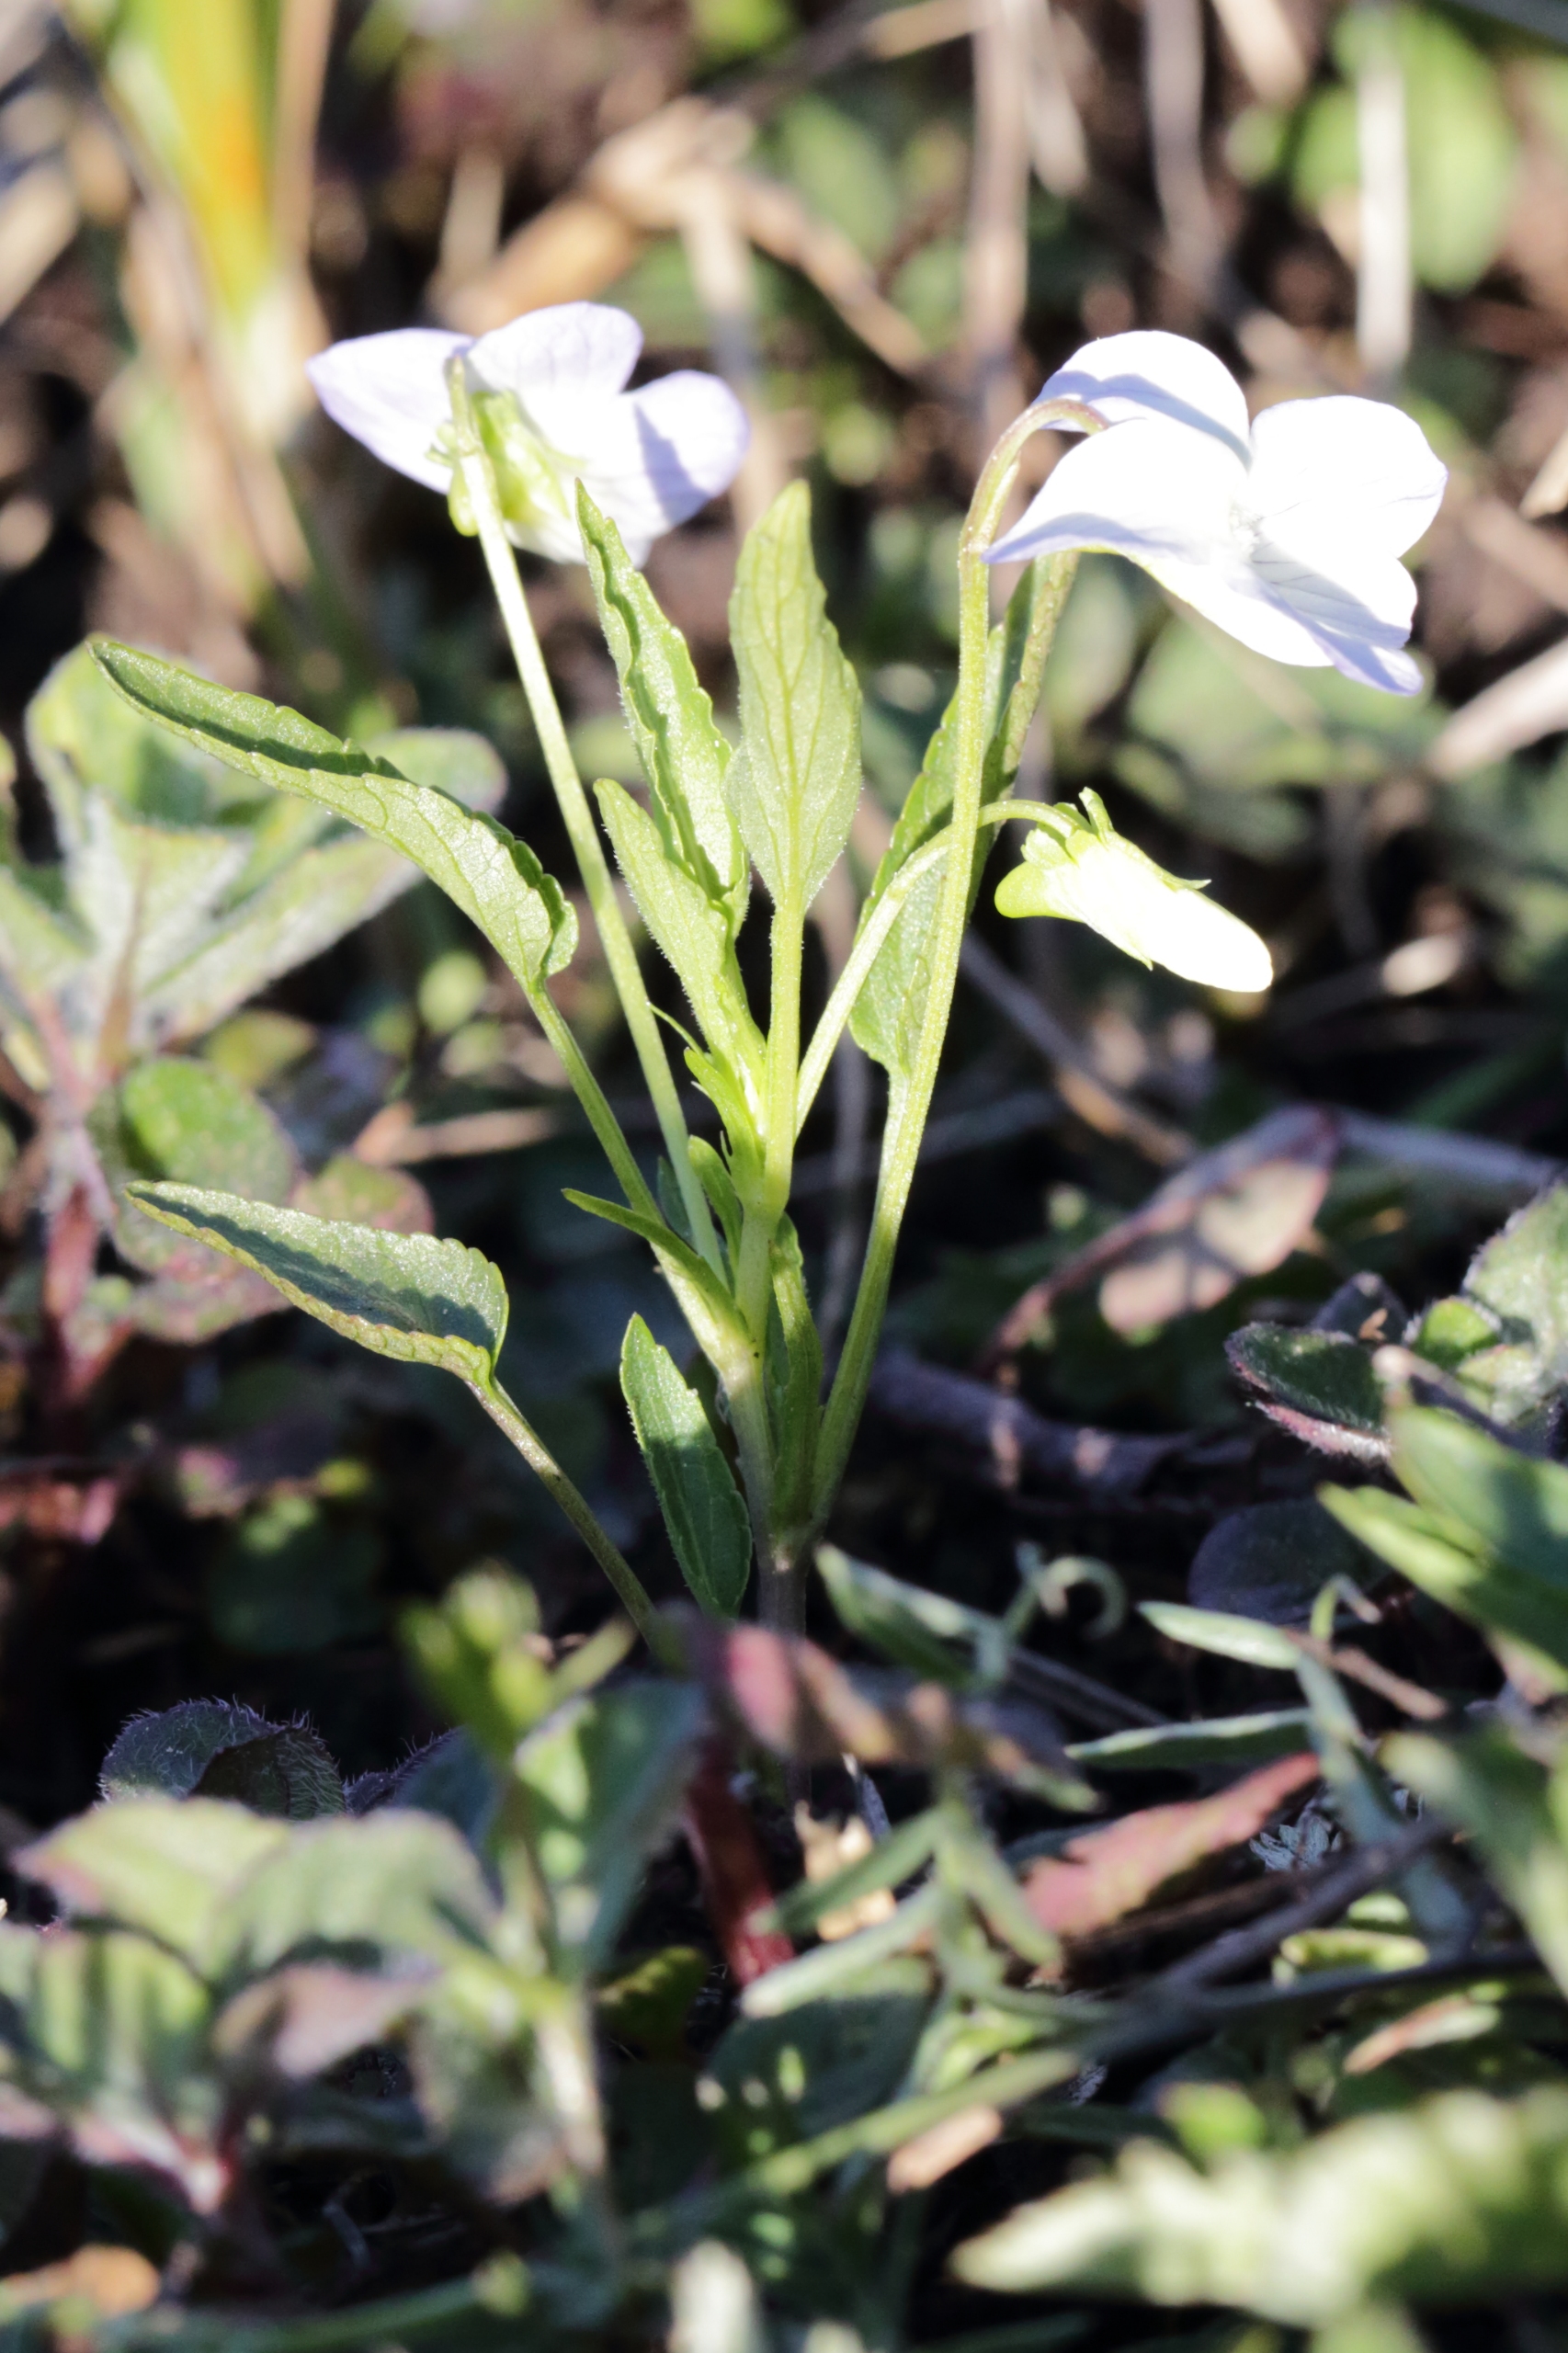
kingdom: Plantae
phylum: Tracheophyta
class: Magnoliopsida
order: Malpighiales
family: Violaceae
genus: Viola
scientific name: Viola stagnina
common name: Rank viol
